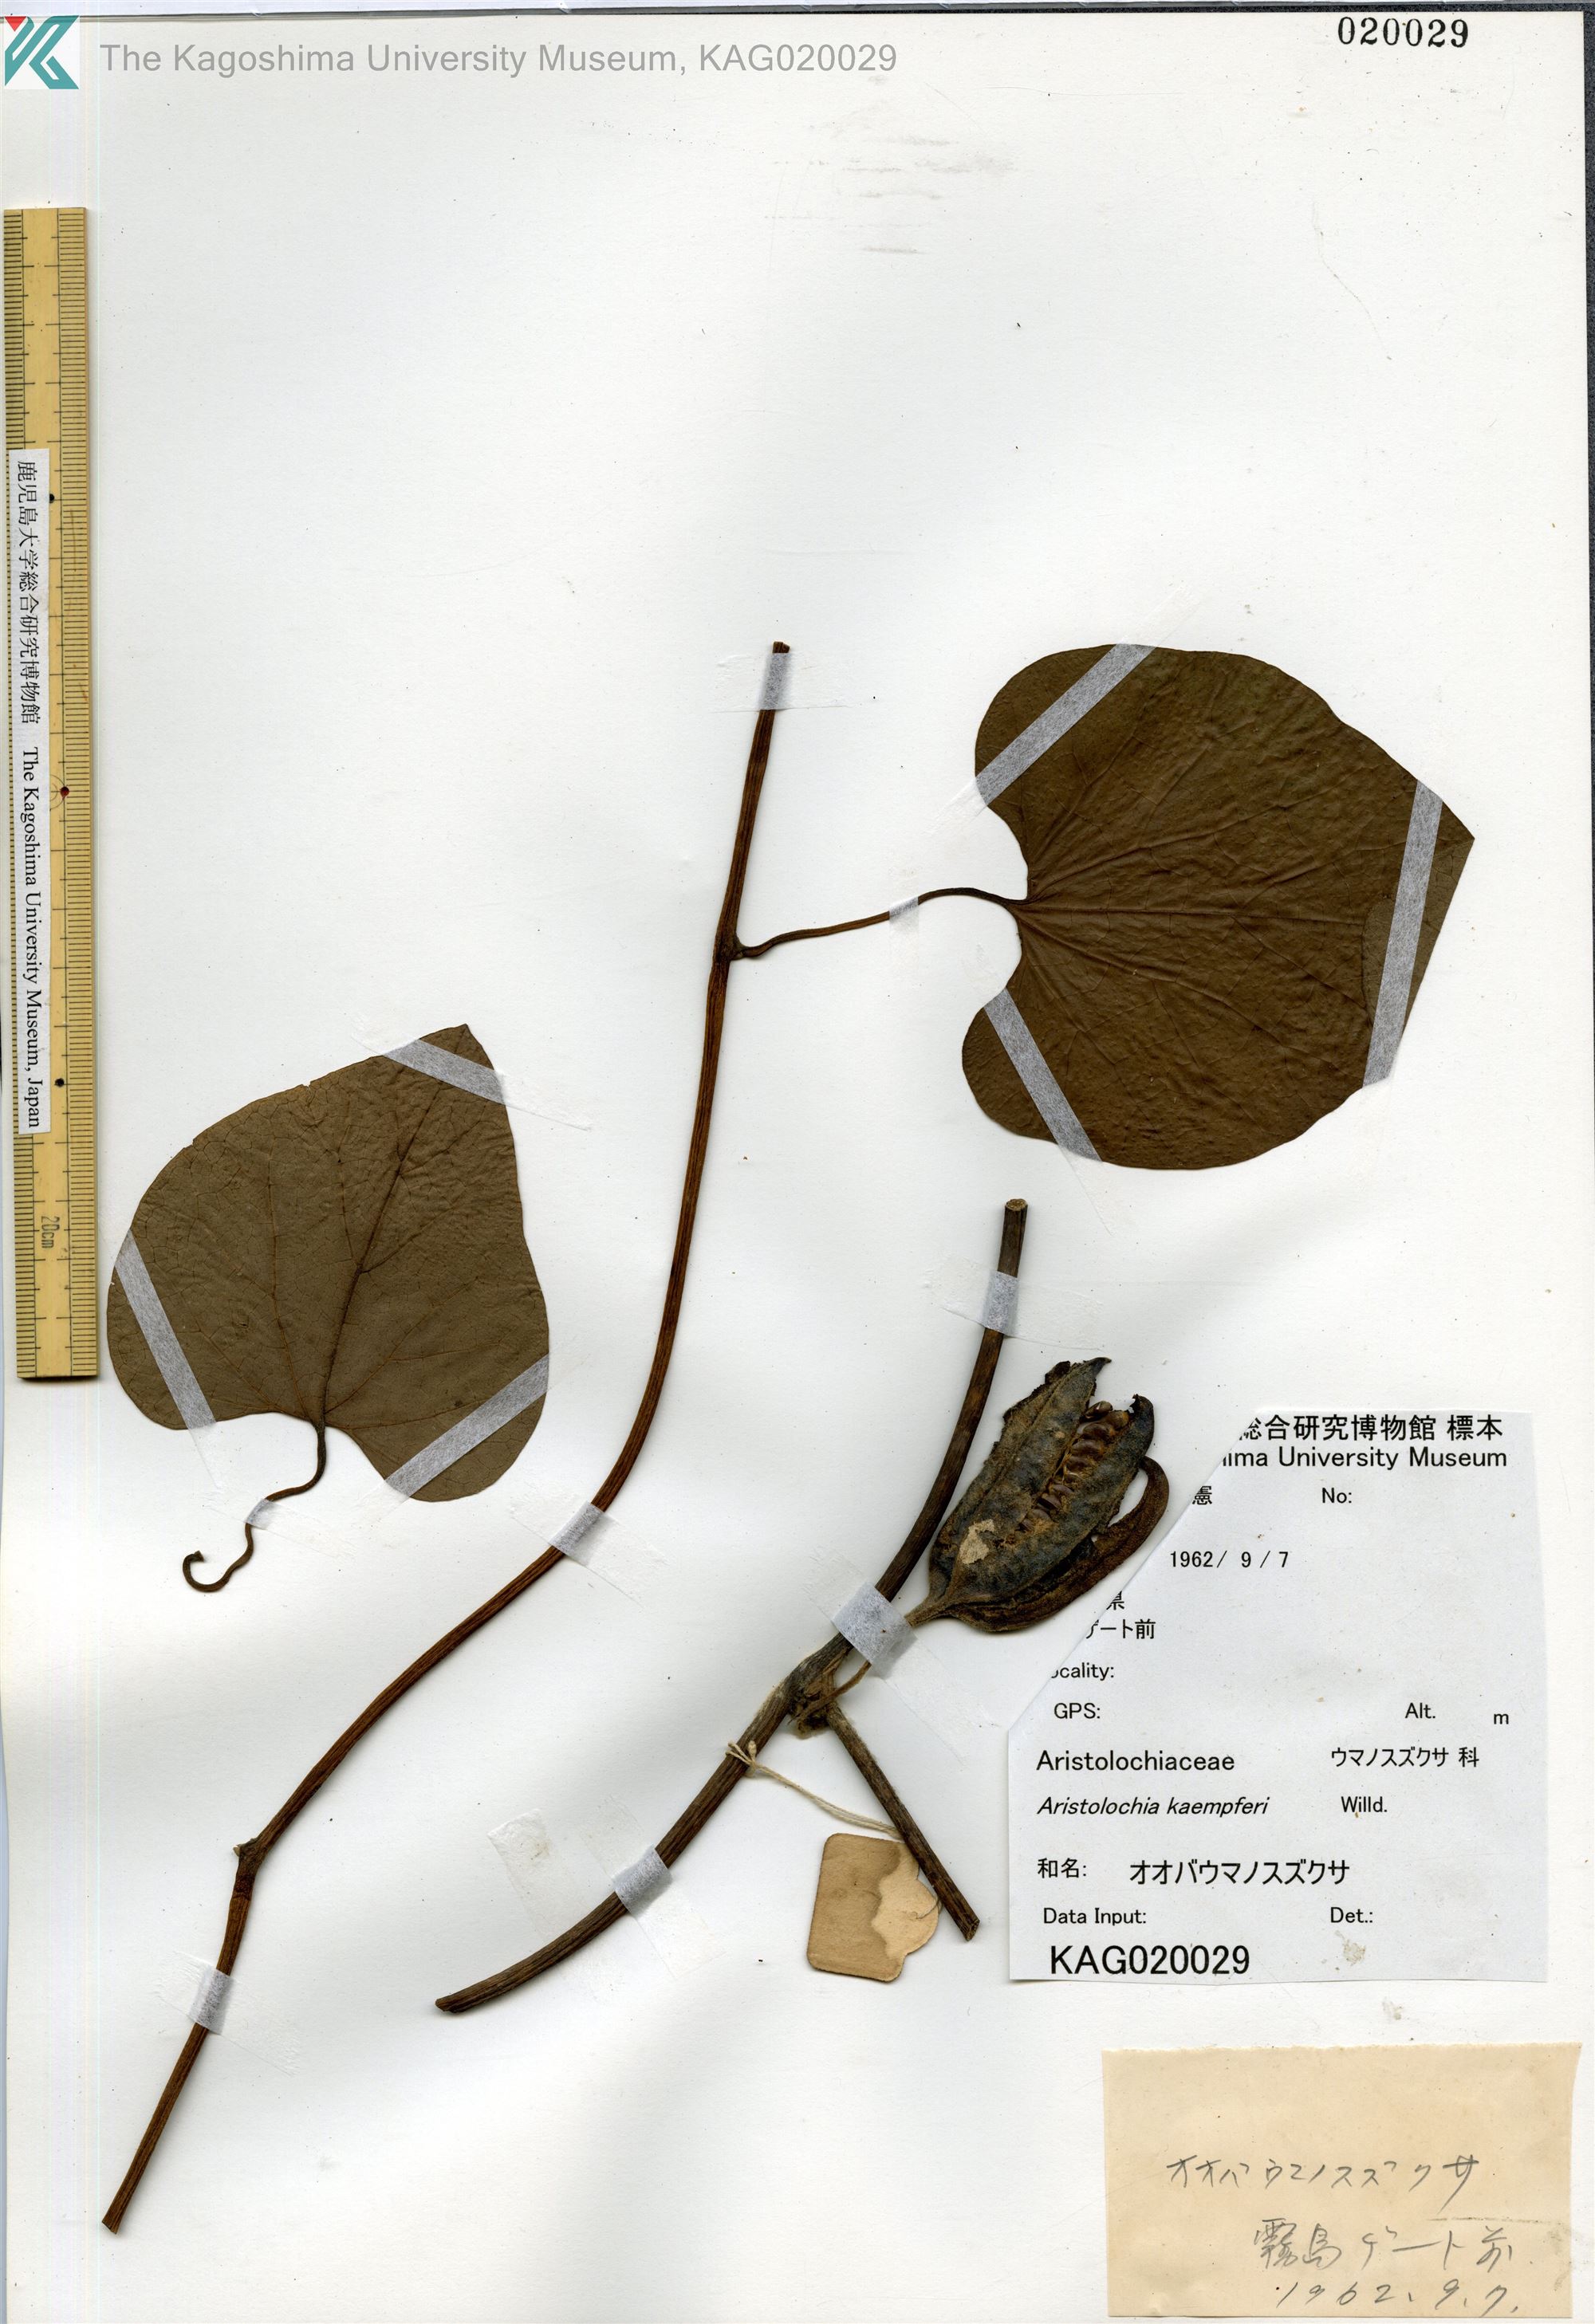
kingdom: Plantae
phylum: Tracheophyta
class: Magnoliopsida
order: Piperales
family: Aristolochiaceae
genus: Isotrema
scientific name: Isotrema kaempferi
